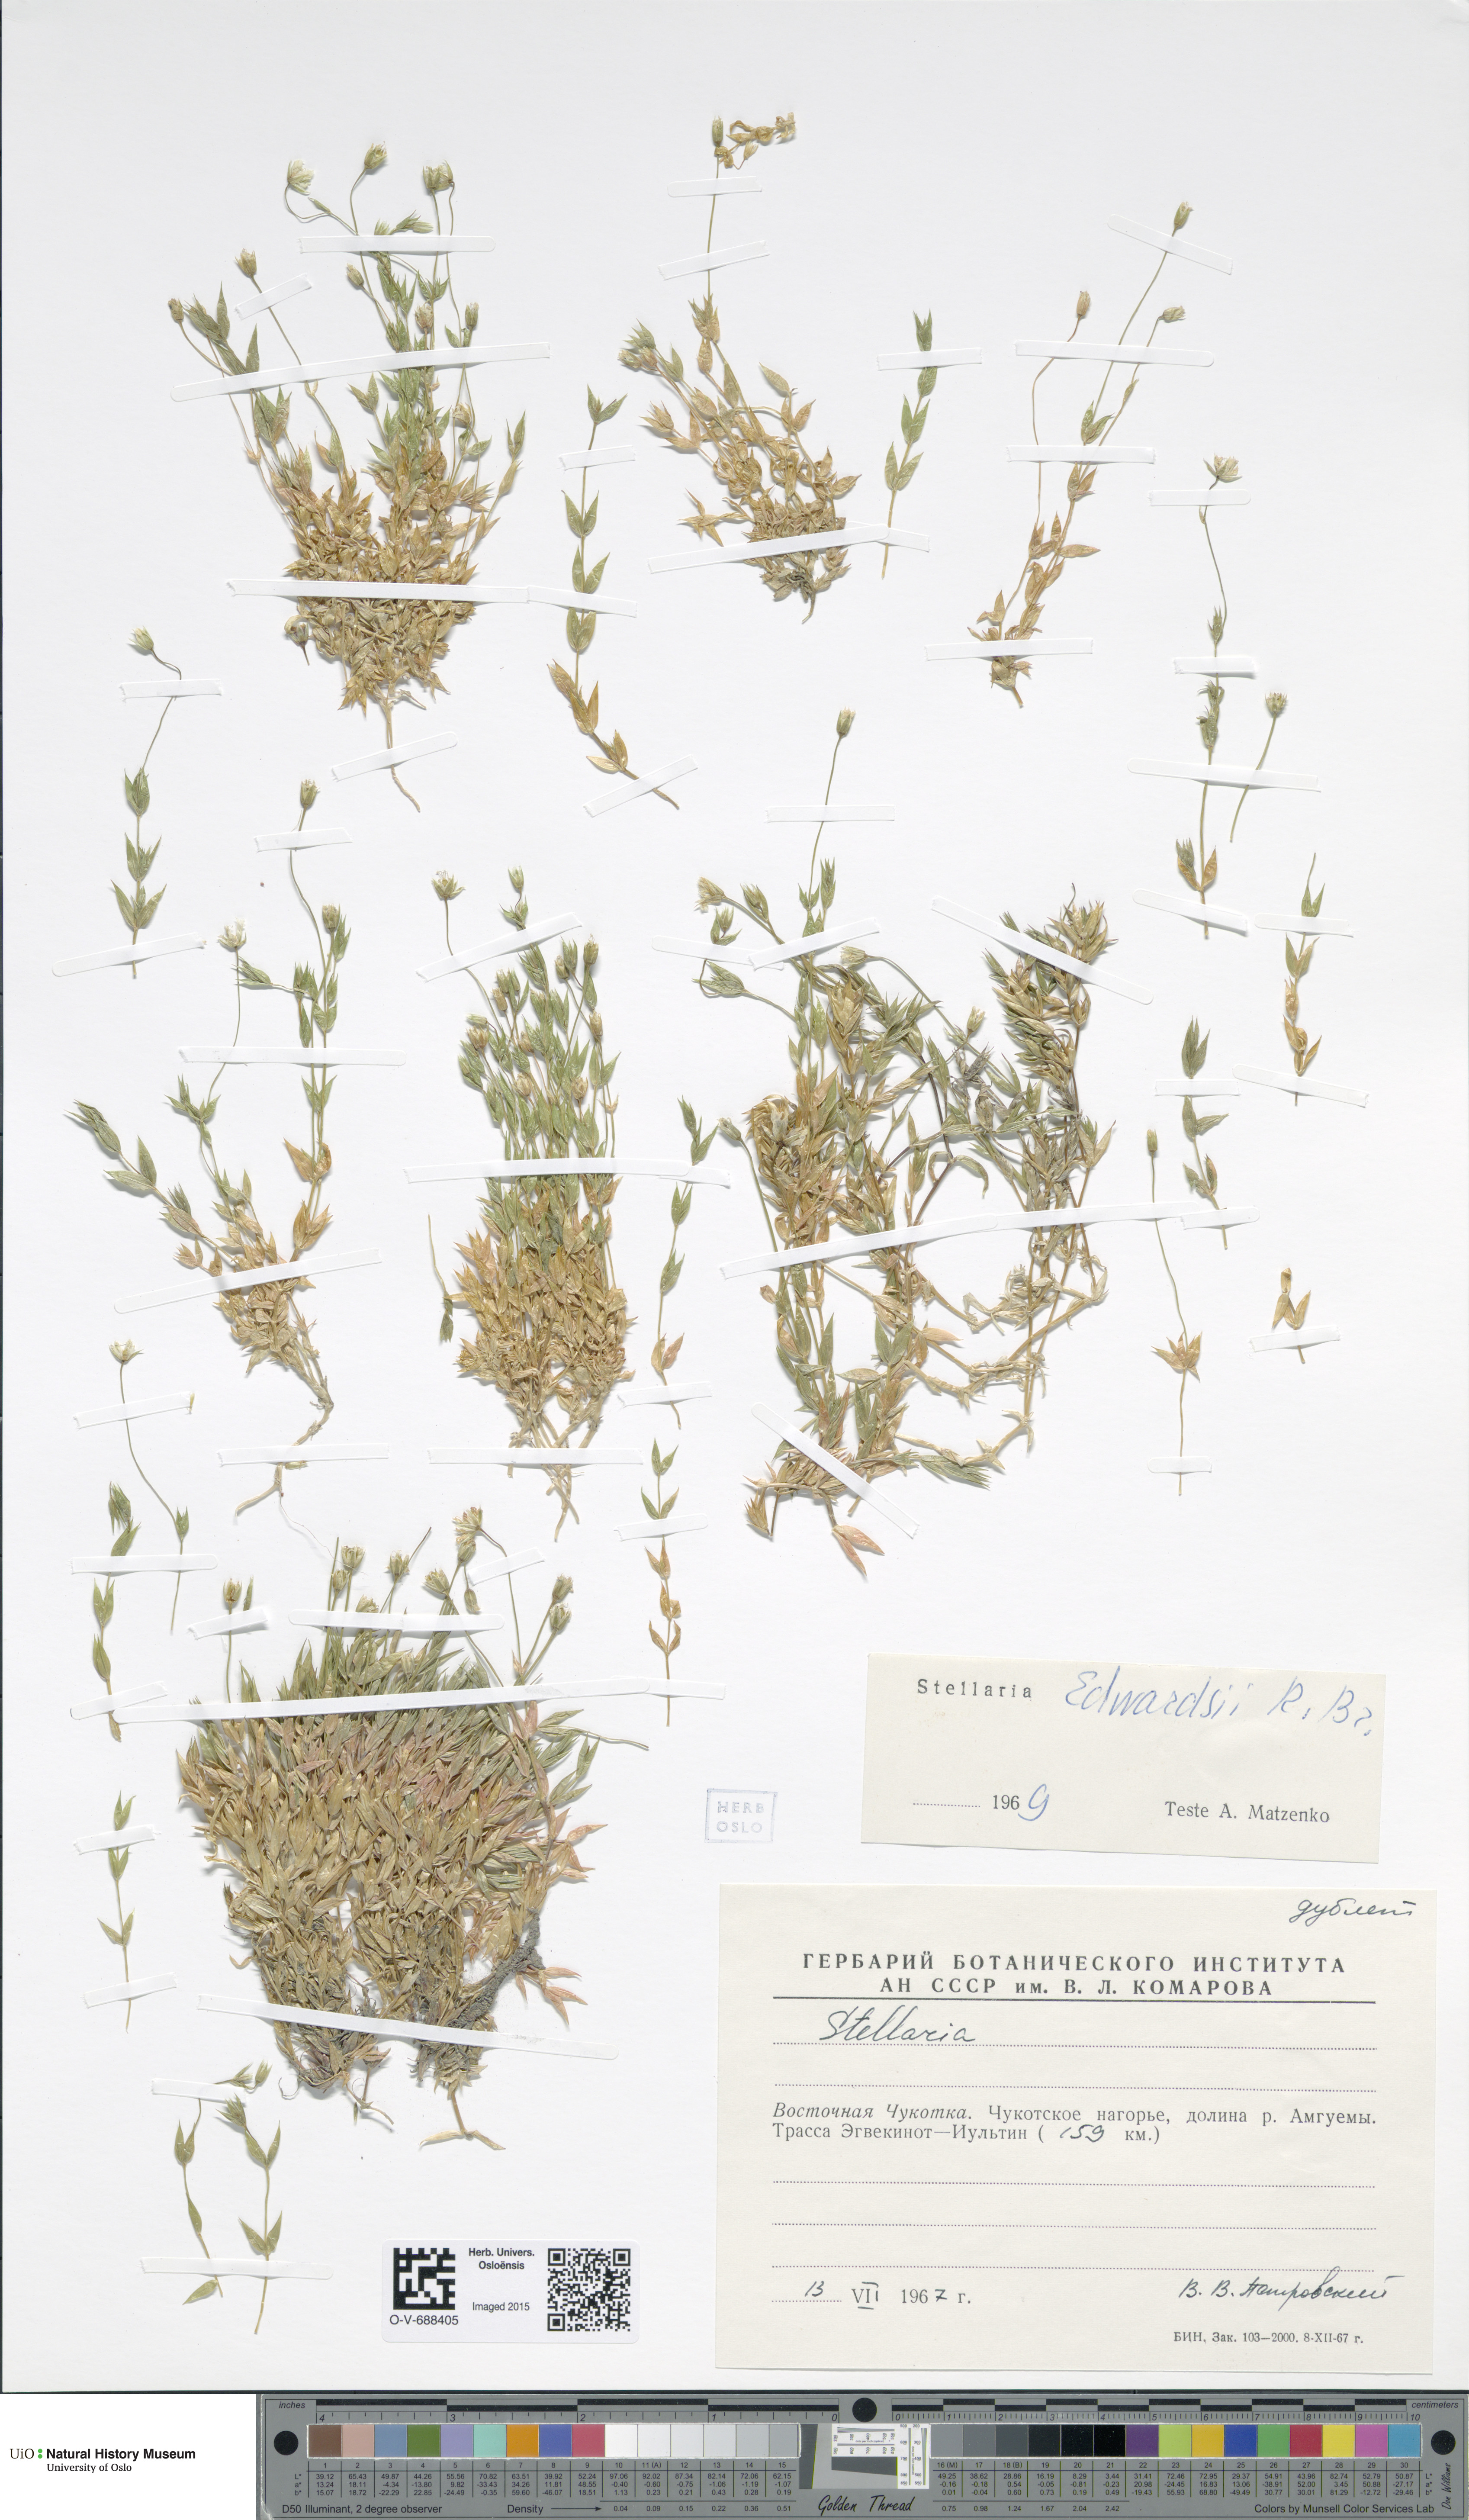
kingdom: Plantae
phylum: Tracheophyta
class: Magnoliopsida
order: Caryophyllales
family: Caryophyllaceae
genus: Stellaria
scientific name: Stellaria edwardsii
